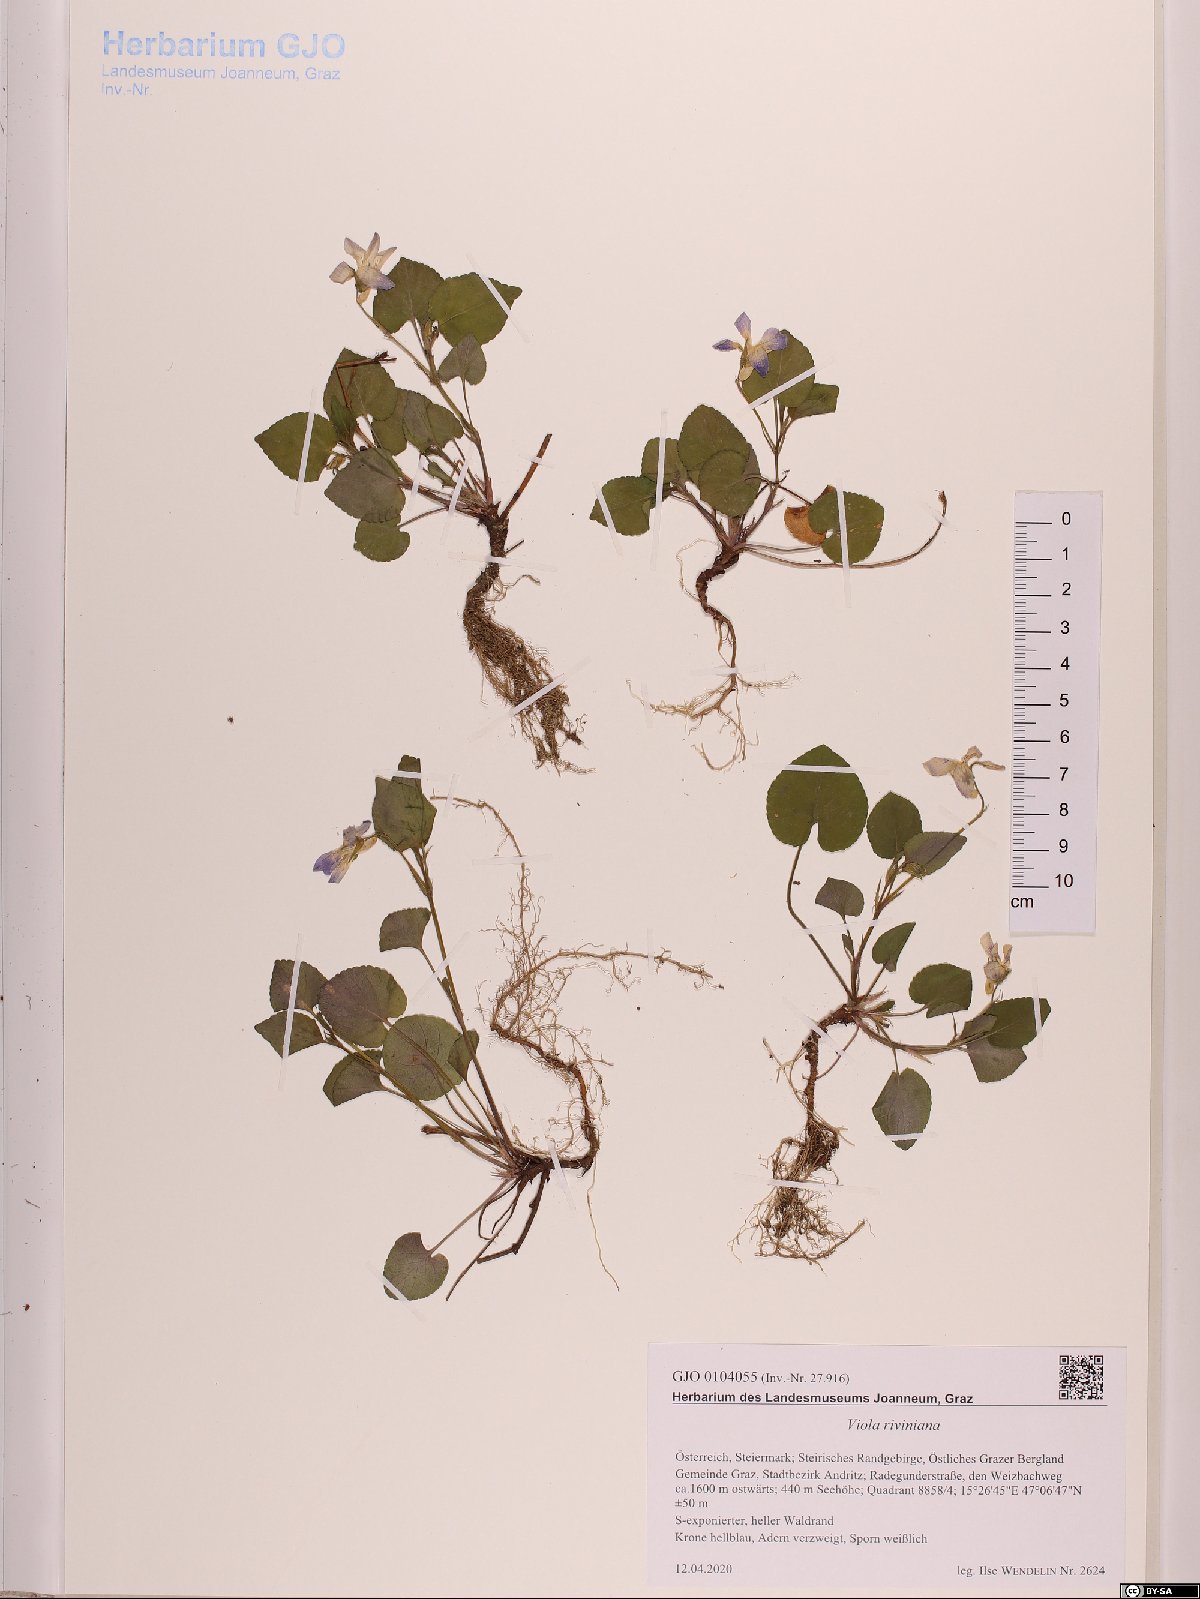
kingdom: Plantae
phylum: Tracheophyta
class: Magnoliopsida
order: Malpighiales
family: Violaceae
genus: Viola
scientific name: Viola riviniana
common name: Common dog-violet
